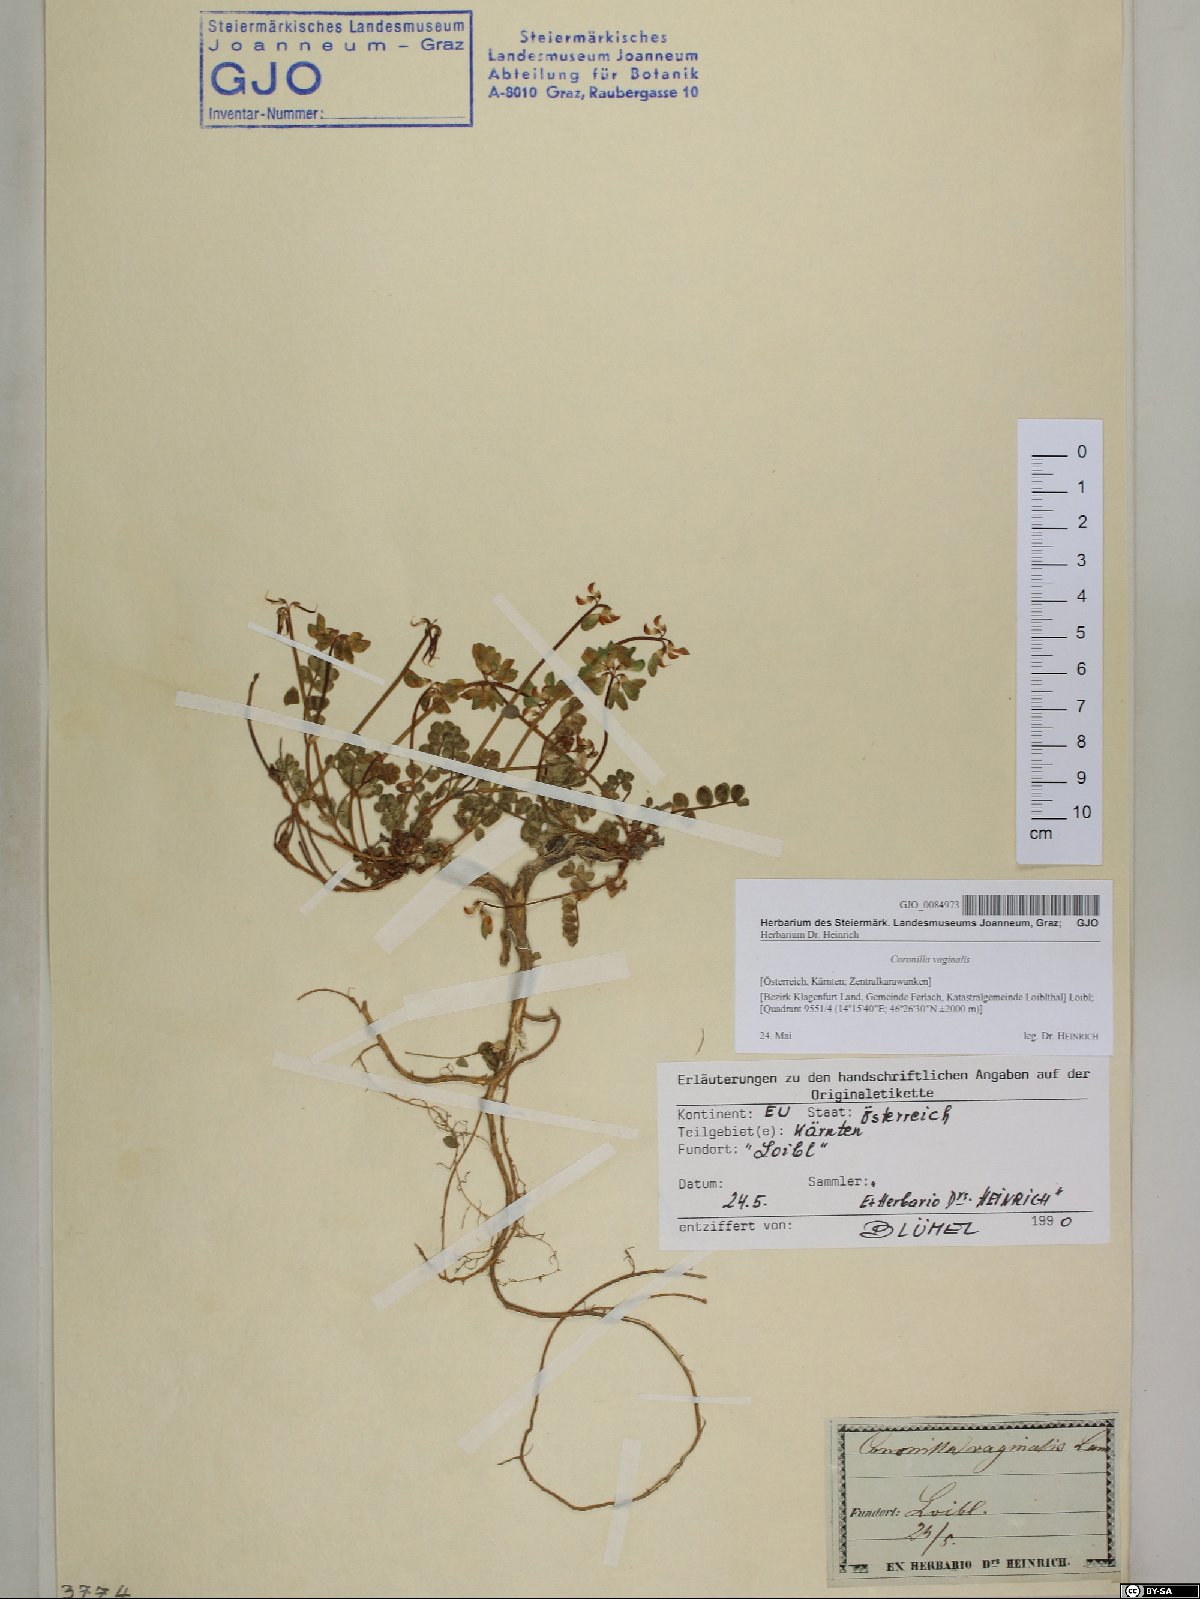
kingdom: Plantae
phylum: Tracheophyta
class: Magnoliopsida
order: Fabales
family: Fabaceae
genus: Coronilla
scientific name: Coronilla vaginalis
